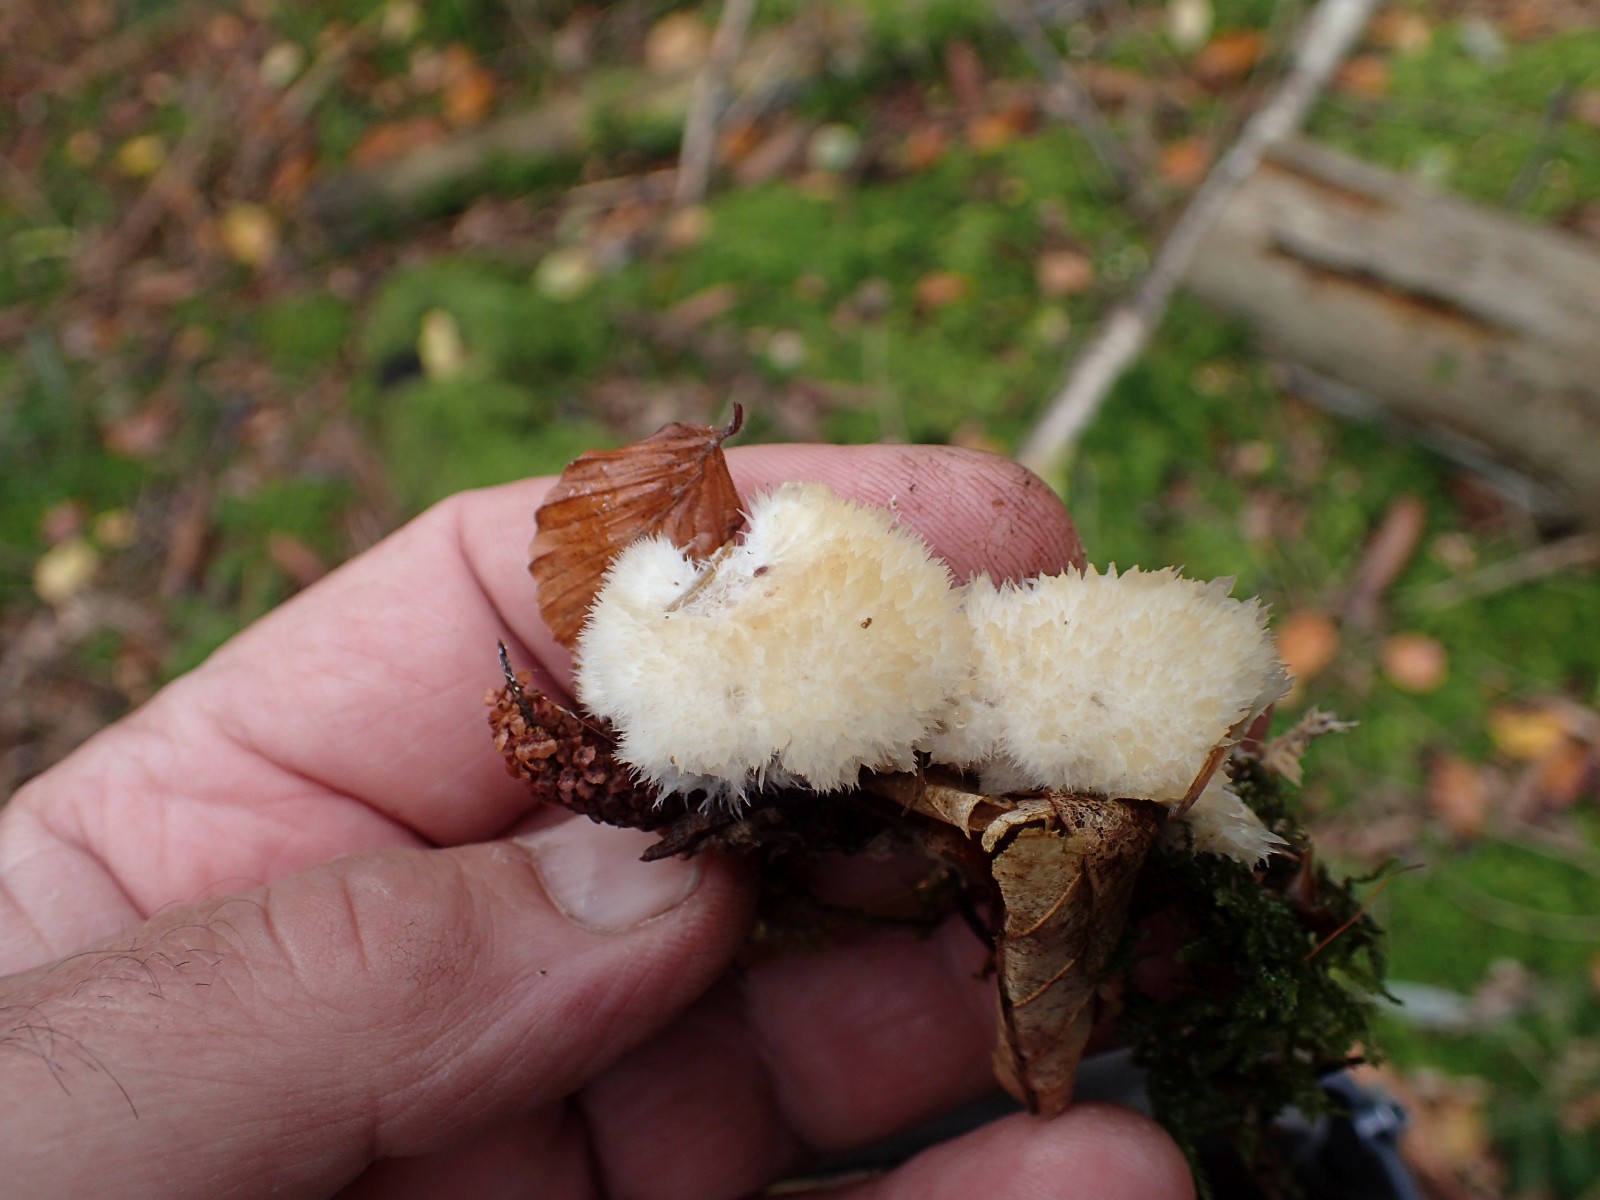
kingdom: Fungi
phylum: Basidiomycota
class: Agaricomycetes
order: Polyporales
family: Dacryobolaceae
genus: Postia
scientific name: Postia ptychogaster
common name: støvende kødporesvamp
